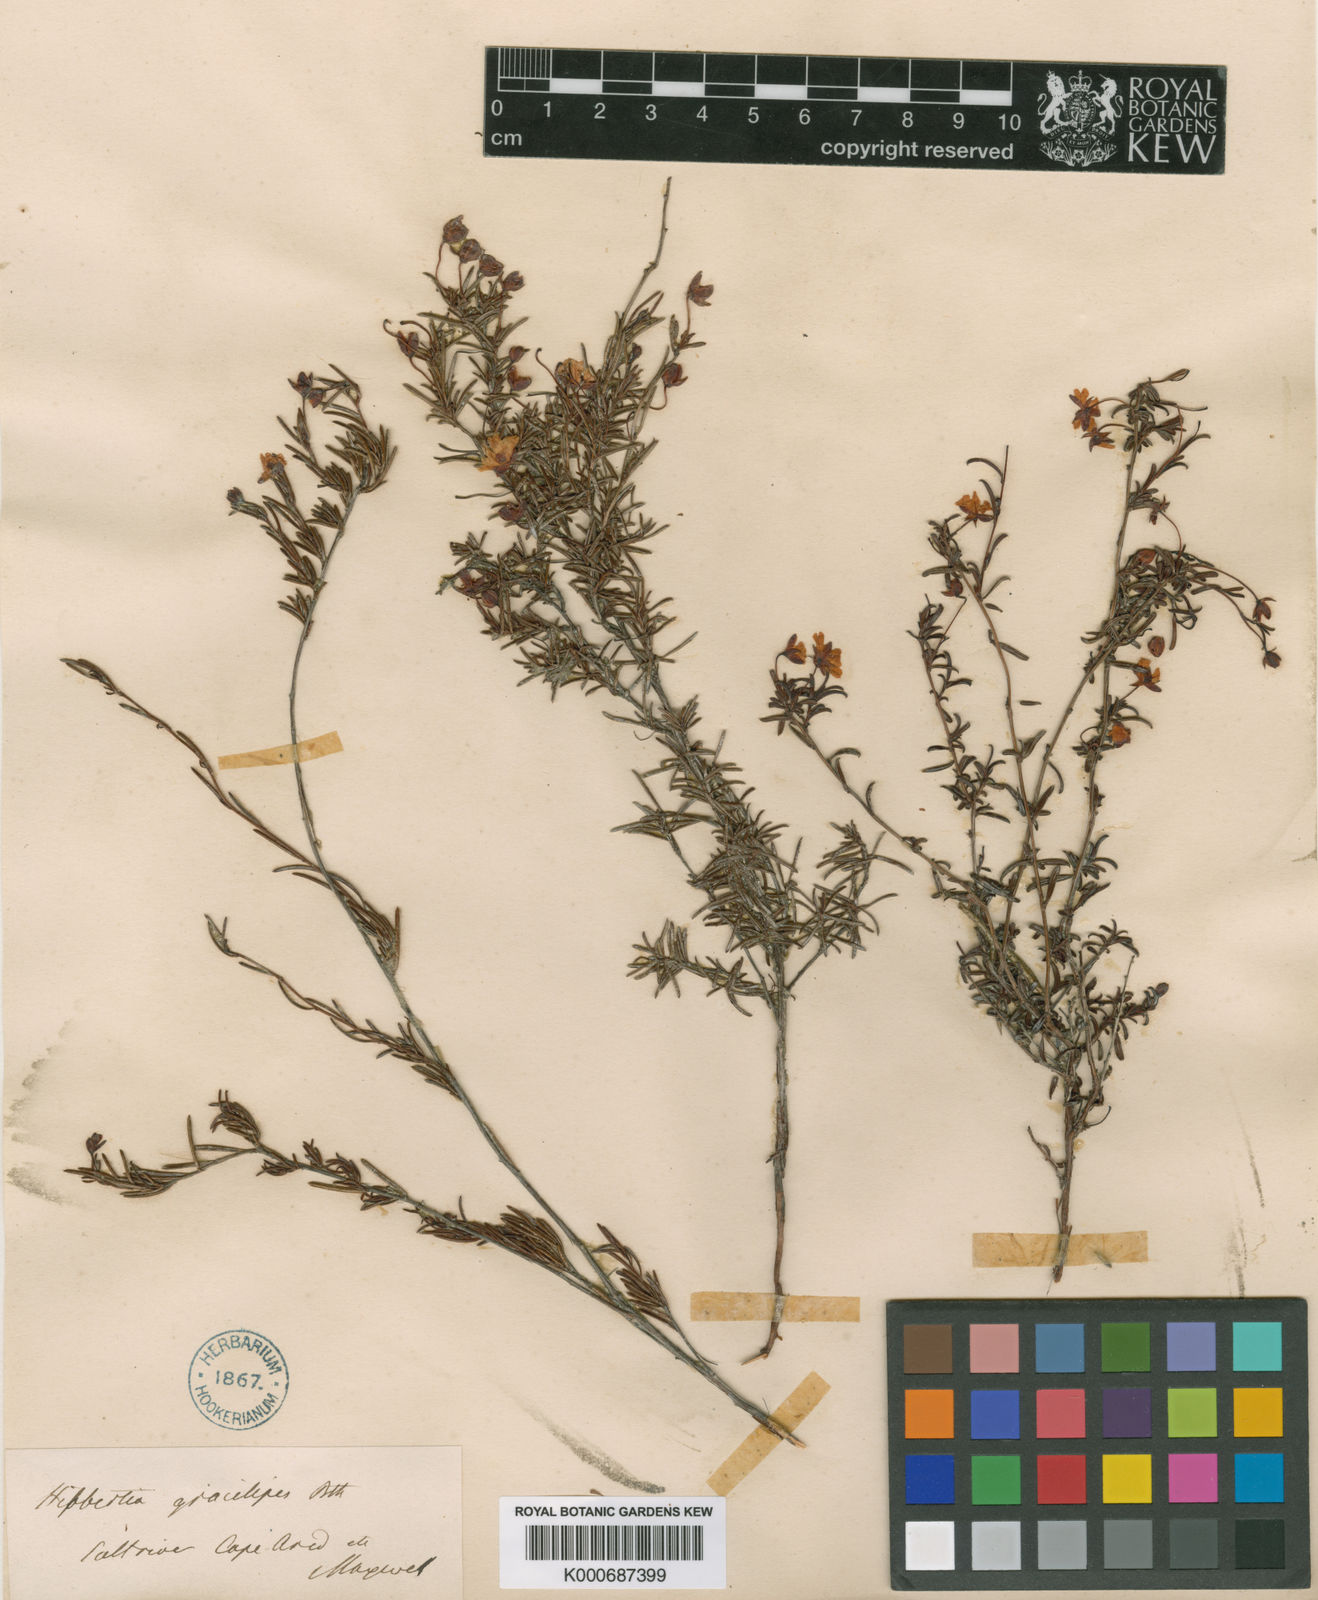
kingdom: Plantae
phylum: Tracheophyta
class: Magnoliopsida
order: Dilleniales
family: Dilleniaceae
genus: Hibbertia
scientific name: Hibbertia gracilipes
